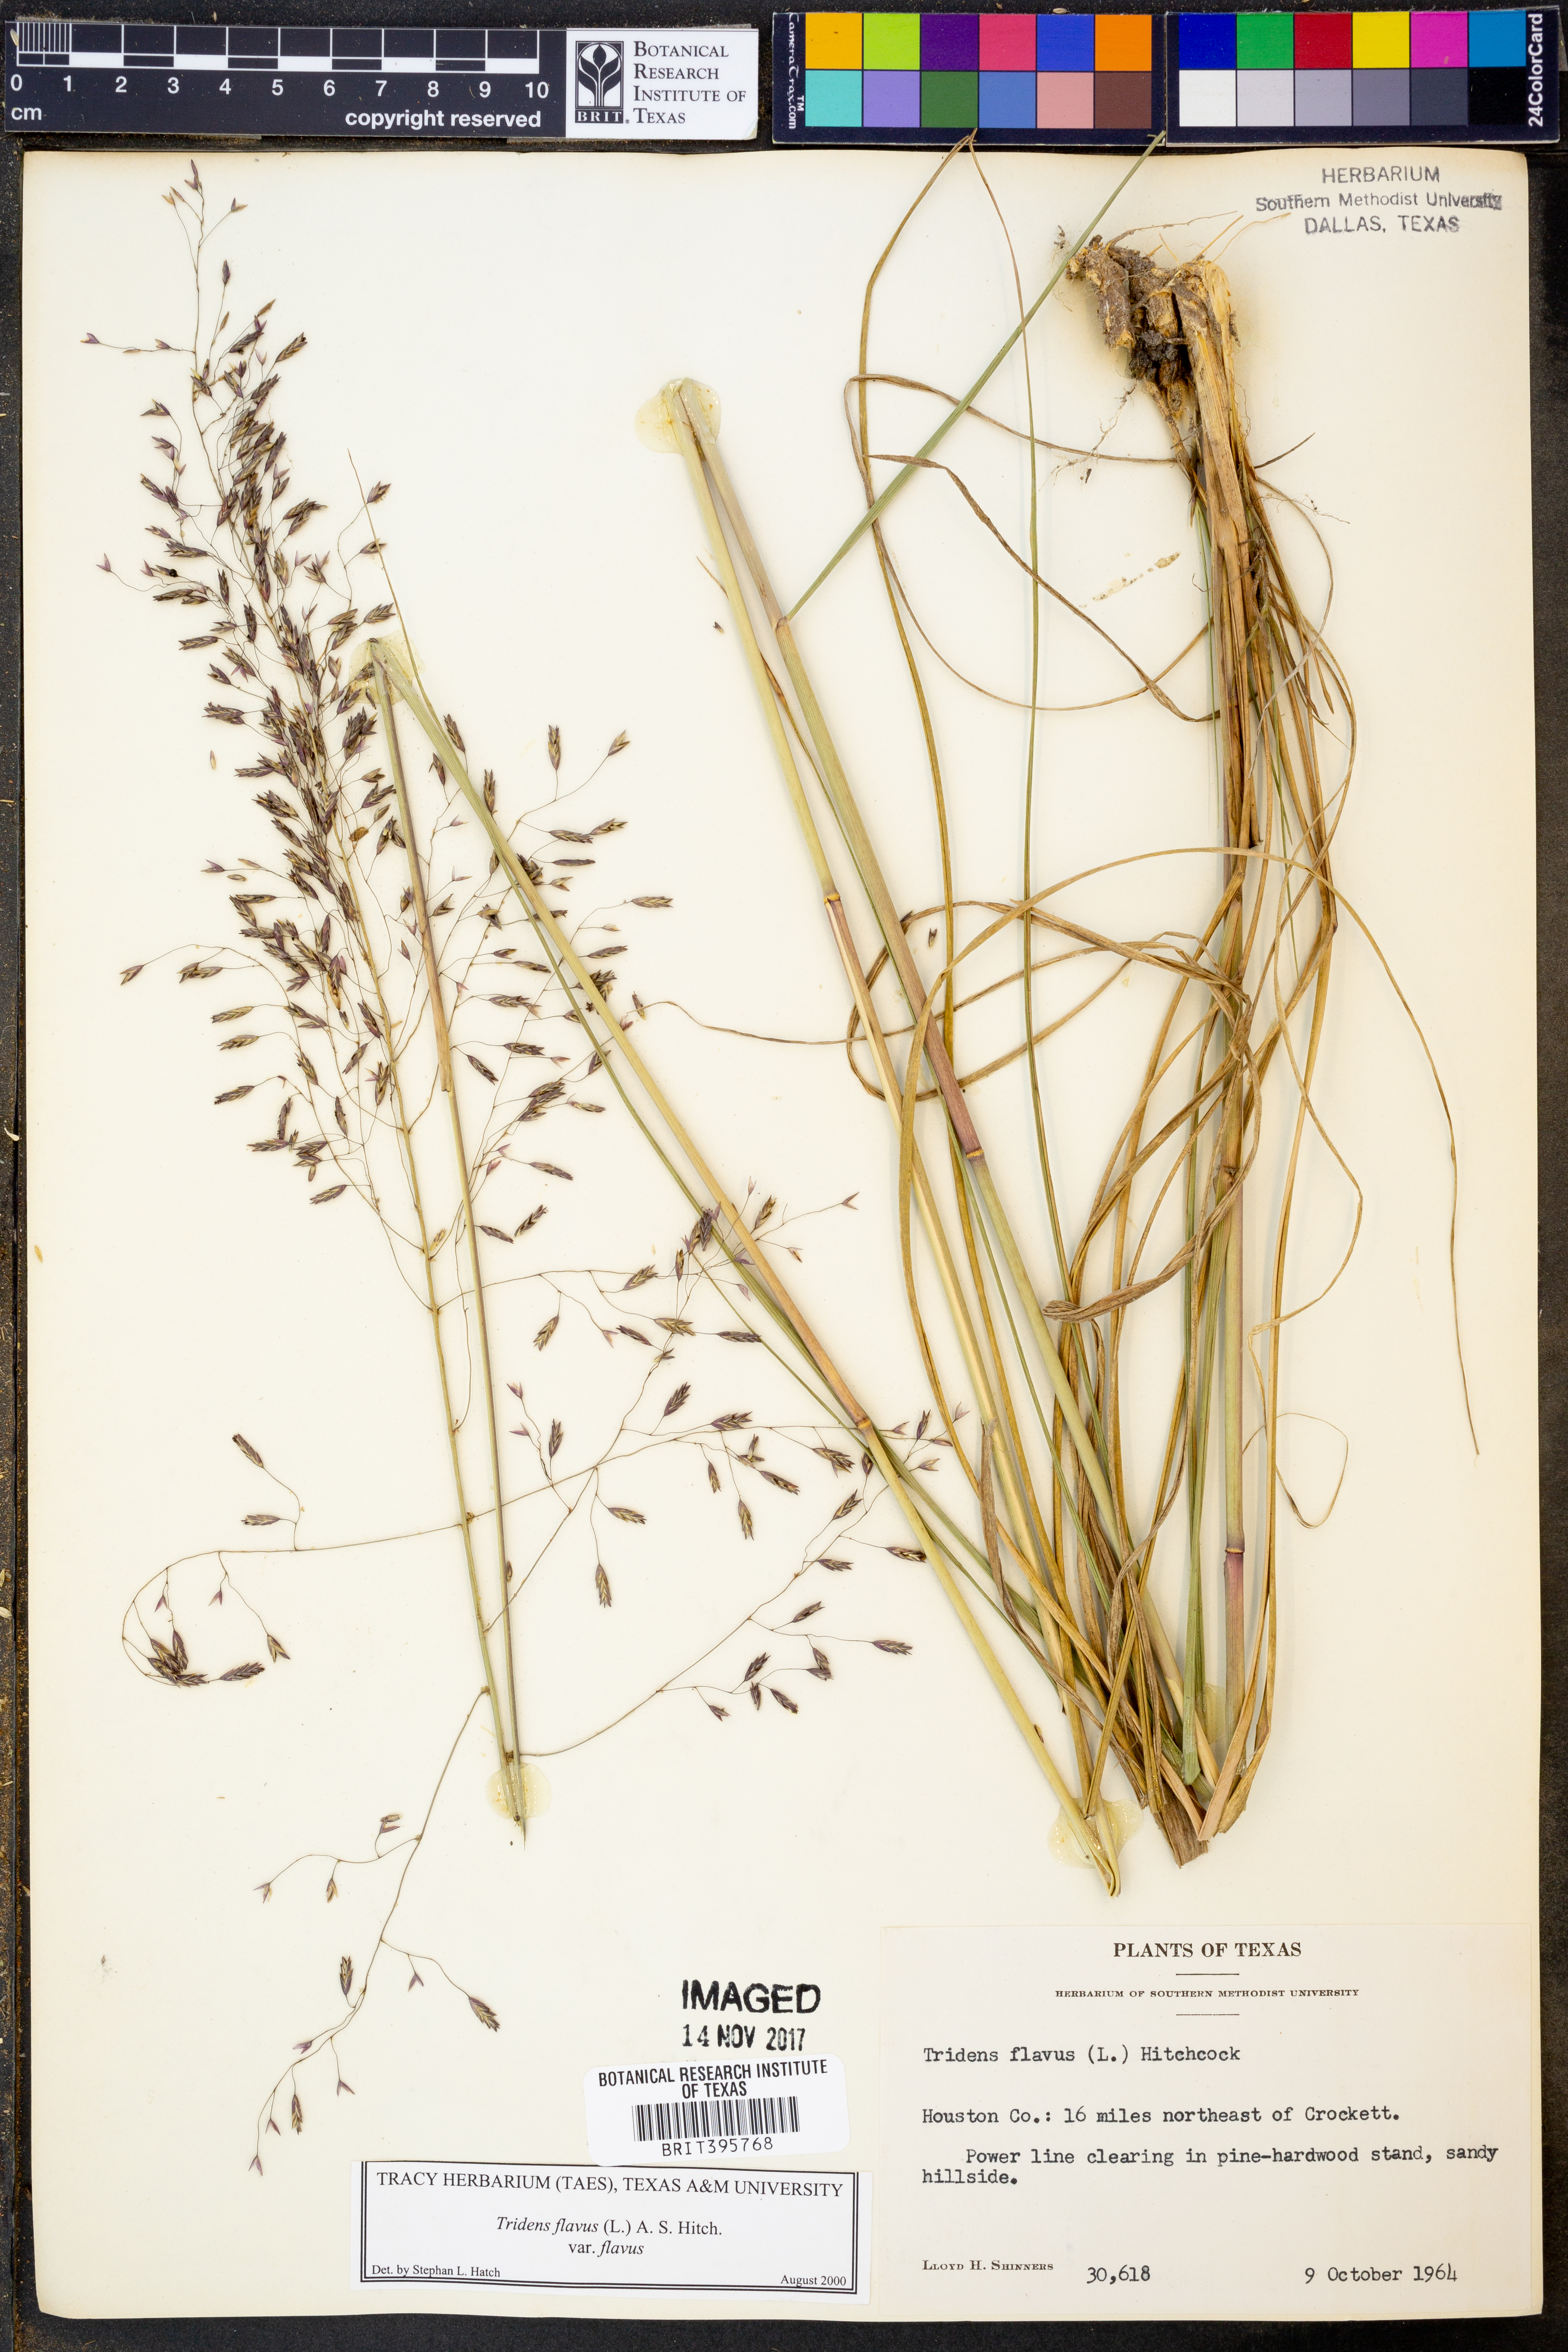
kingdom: Plantae
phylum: Tracheophyta
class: Liliopsida
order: Poales
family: Poaceae
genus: Tridens
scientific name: Tridens flavus
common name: Purpletop
